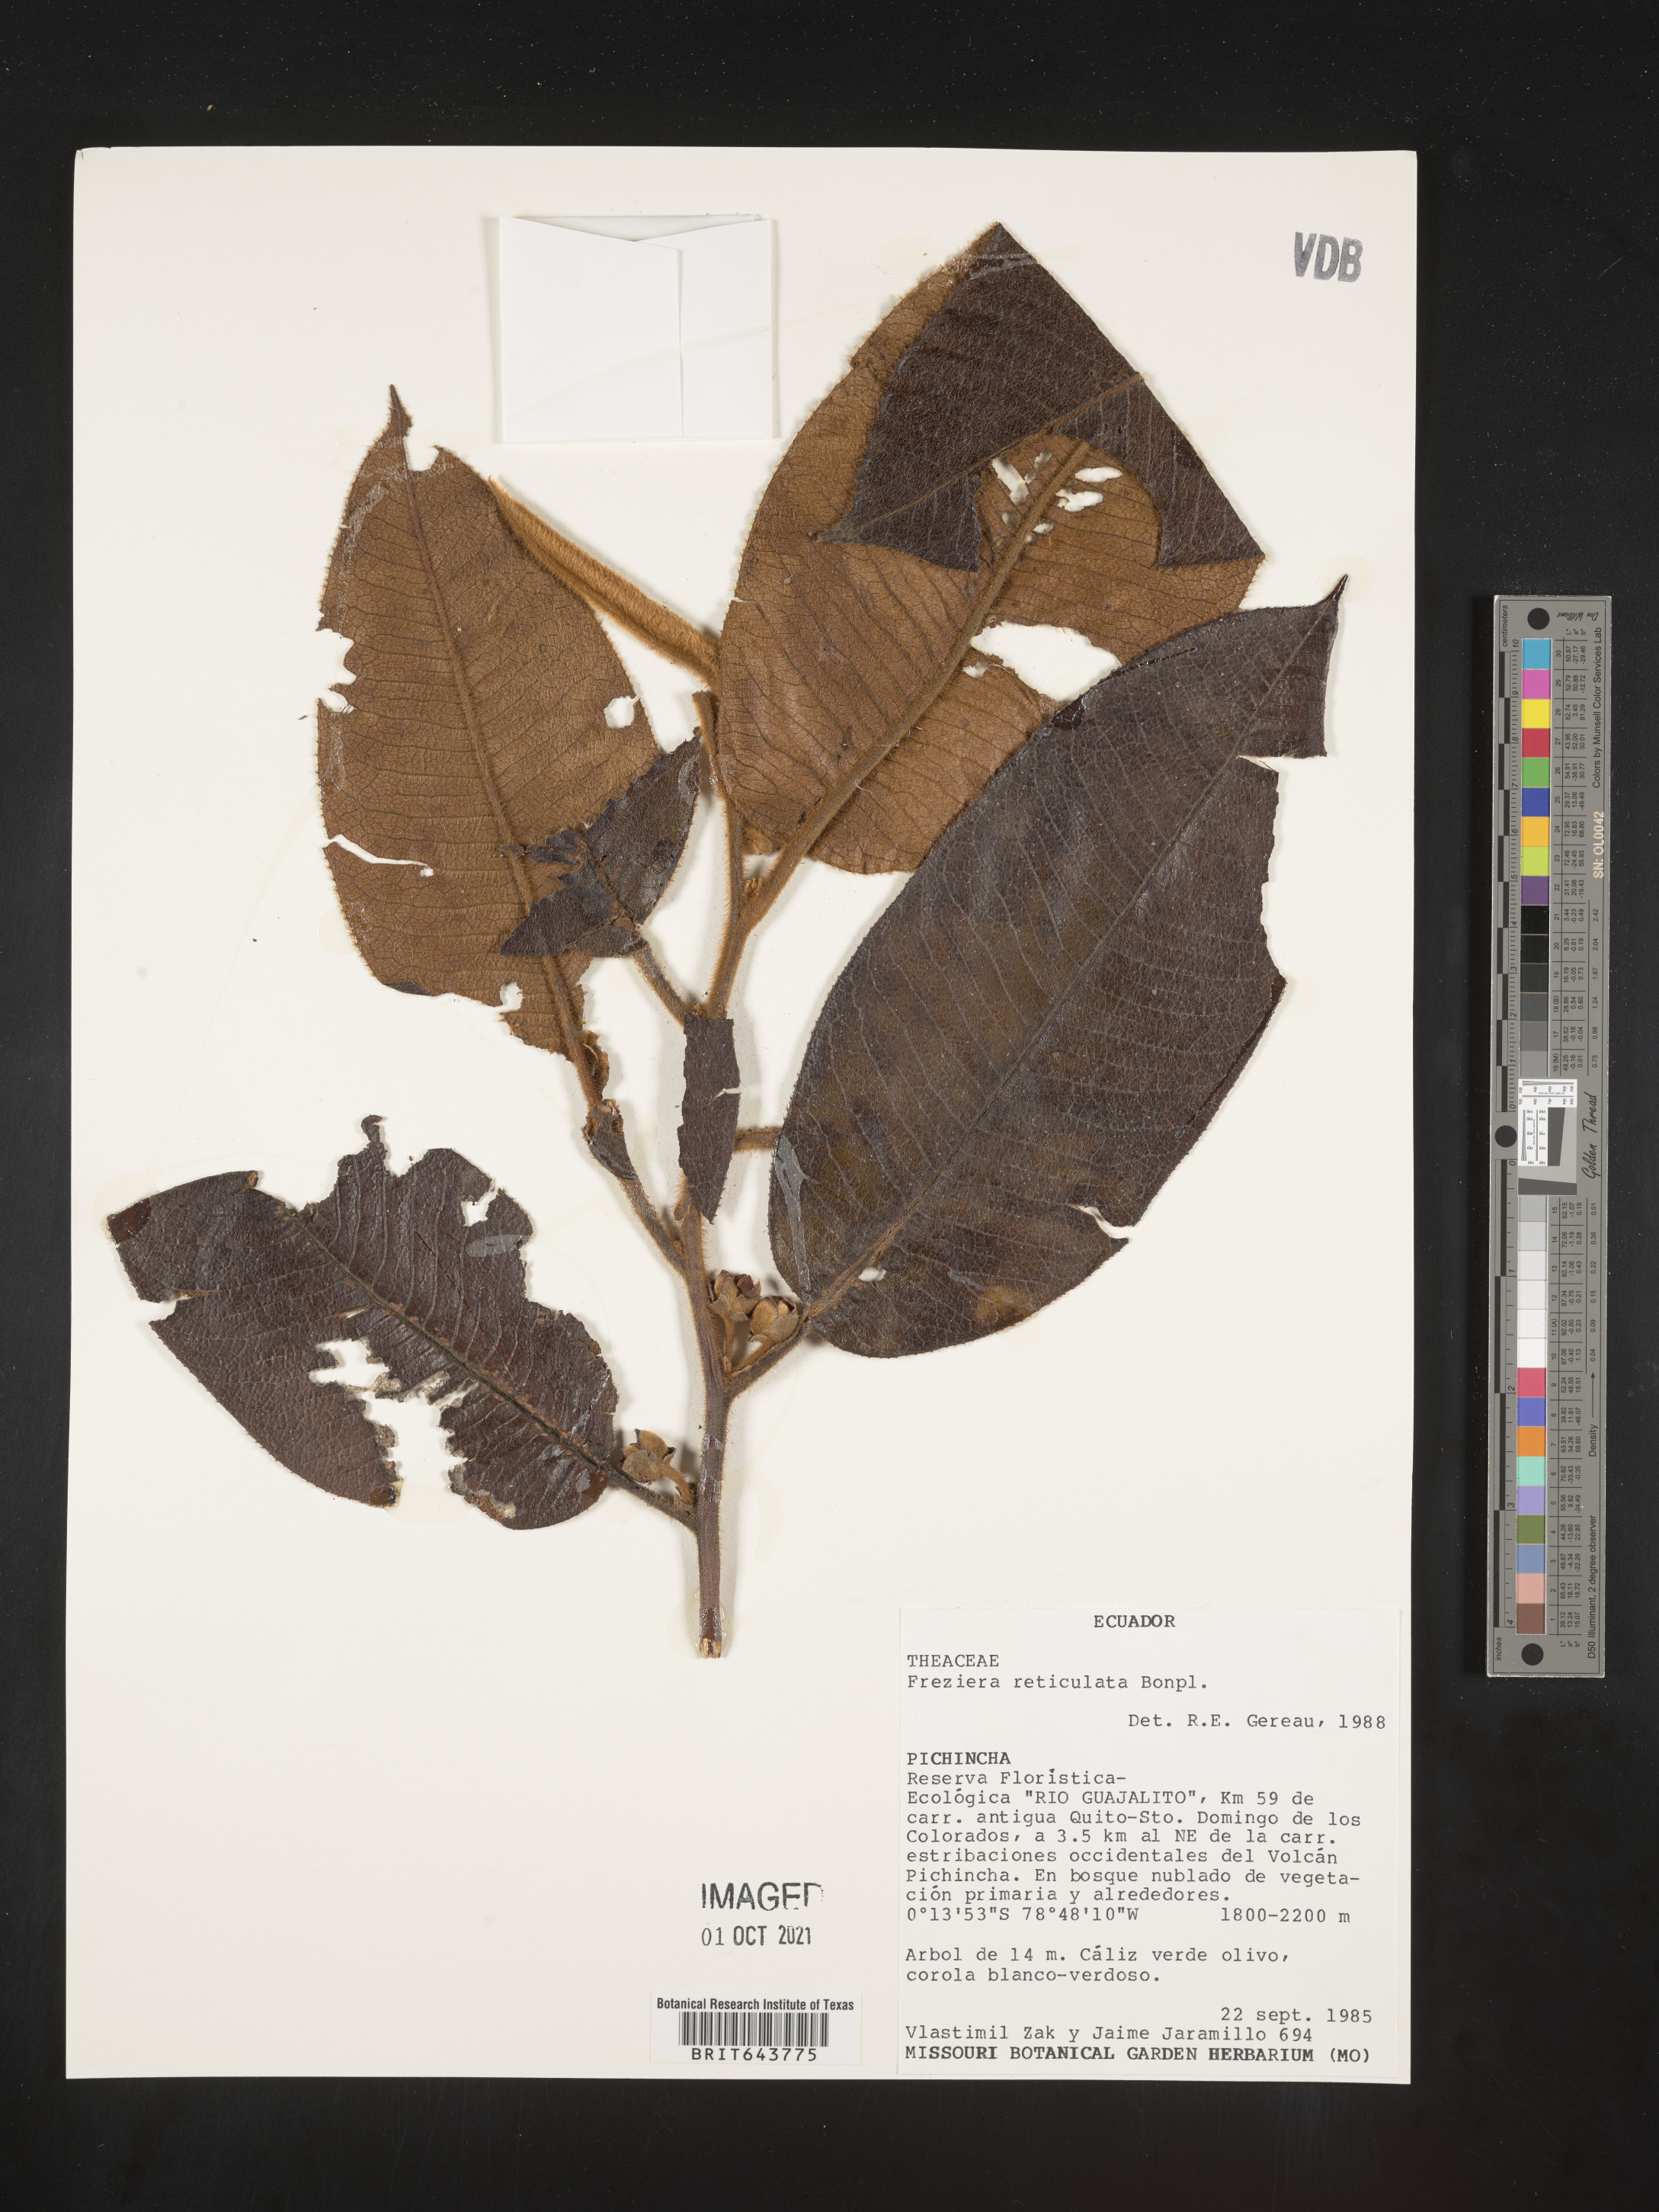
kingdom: Plantae
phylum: Tracheophyta
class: Magnoliopsida
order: Ericales
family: Pentaphylacaceae
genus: Freziera
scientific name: Freziera
